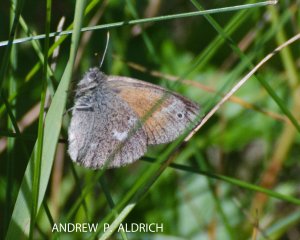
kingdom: Animalia
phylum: Arthropoda
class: Insecta
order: Lepidoptera
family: Nymphalidae
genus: Coenonympha
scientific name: Coenonympha tullia
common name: Large Heath
